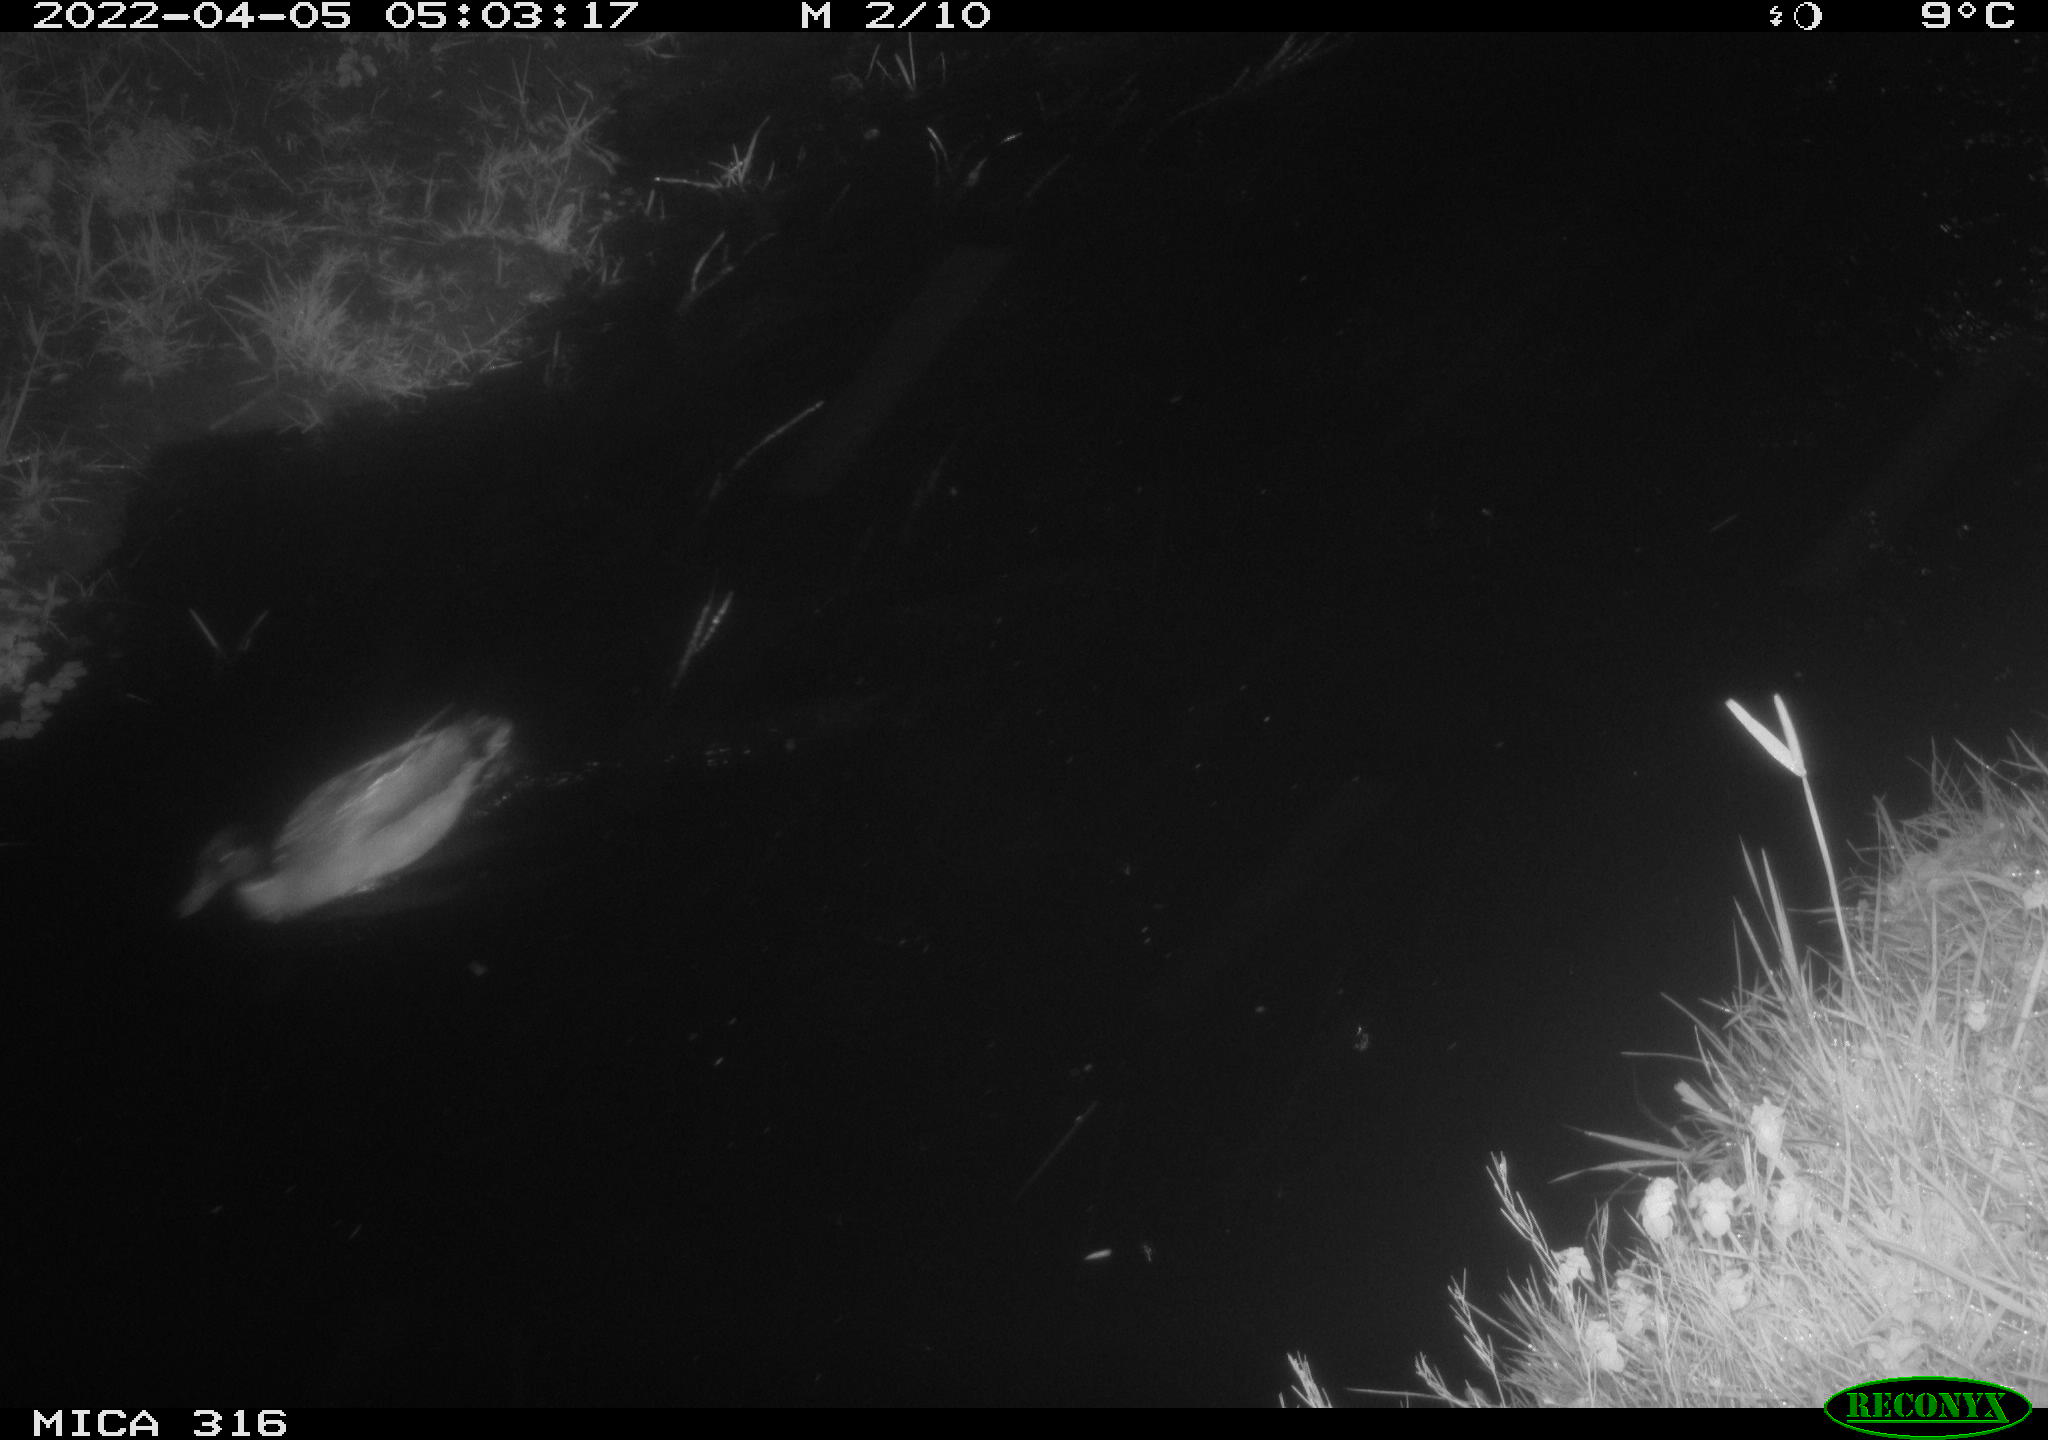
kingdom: Animalia
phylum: Chordata
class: Aves
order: Anseriformes
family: Anatidae
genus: Anas
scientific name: Anas platyrhynchos
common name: Mallard
